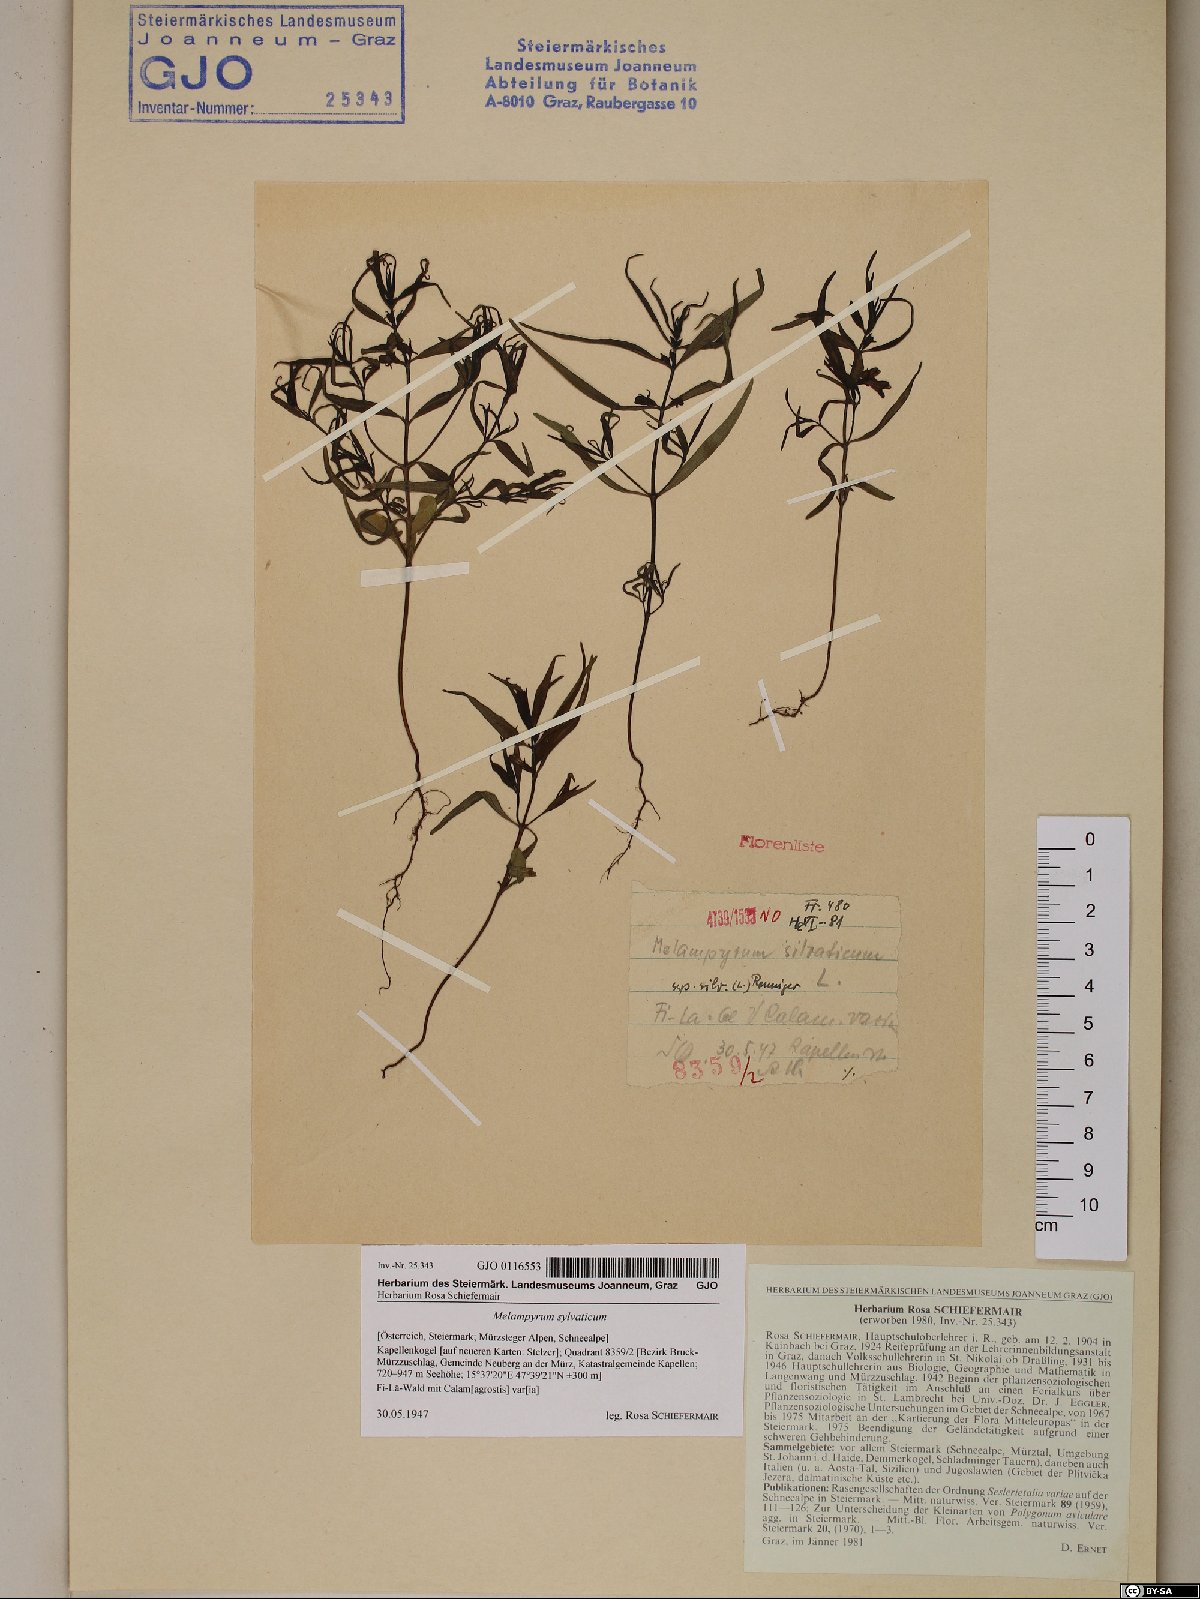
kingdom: Plantae
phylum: Tracheophyta
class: Magnoliopsida
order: Lamiales
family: Orobanchaceae
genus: Melampyrum
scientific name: Melampyrum sylvaticum
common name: Small cow-wheat
